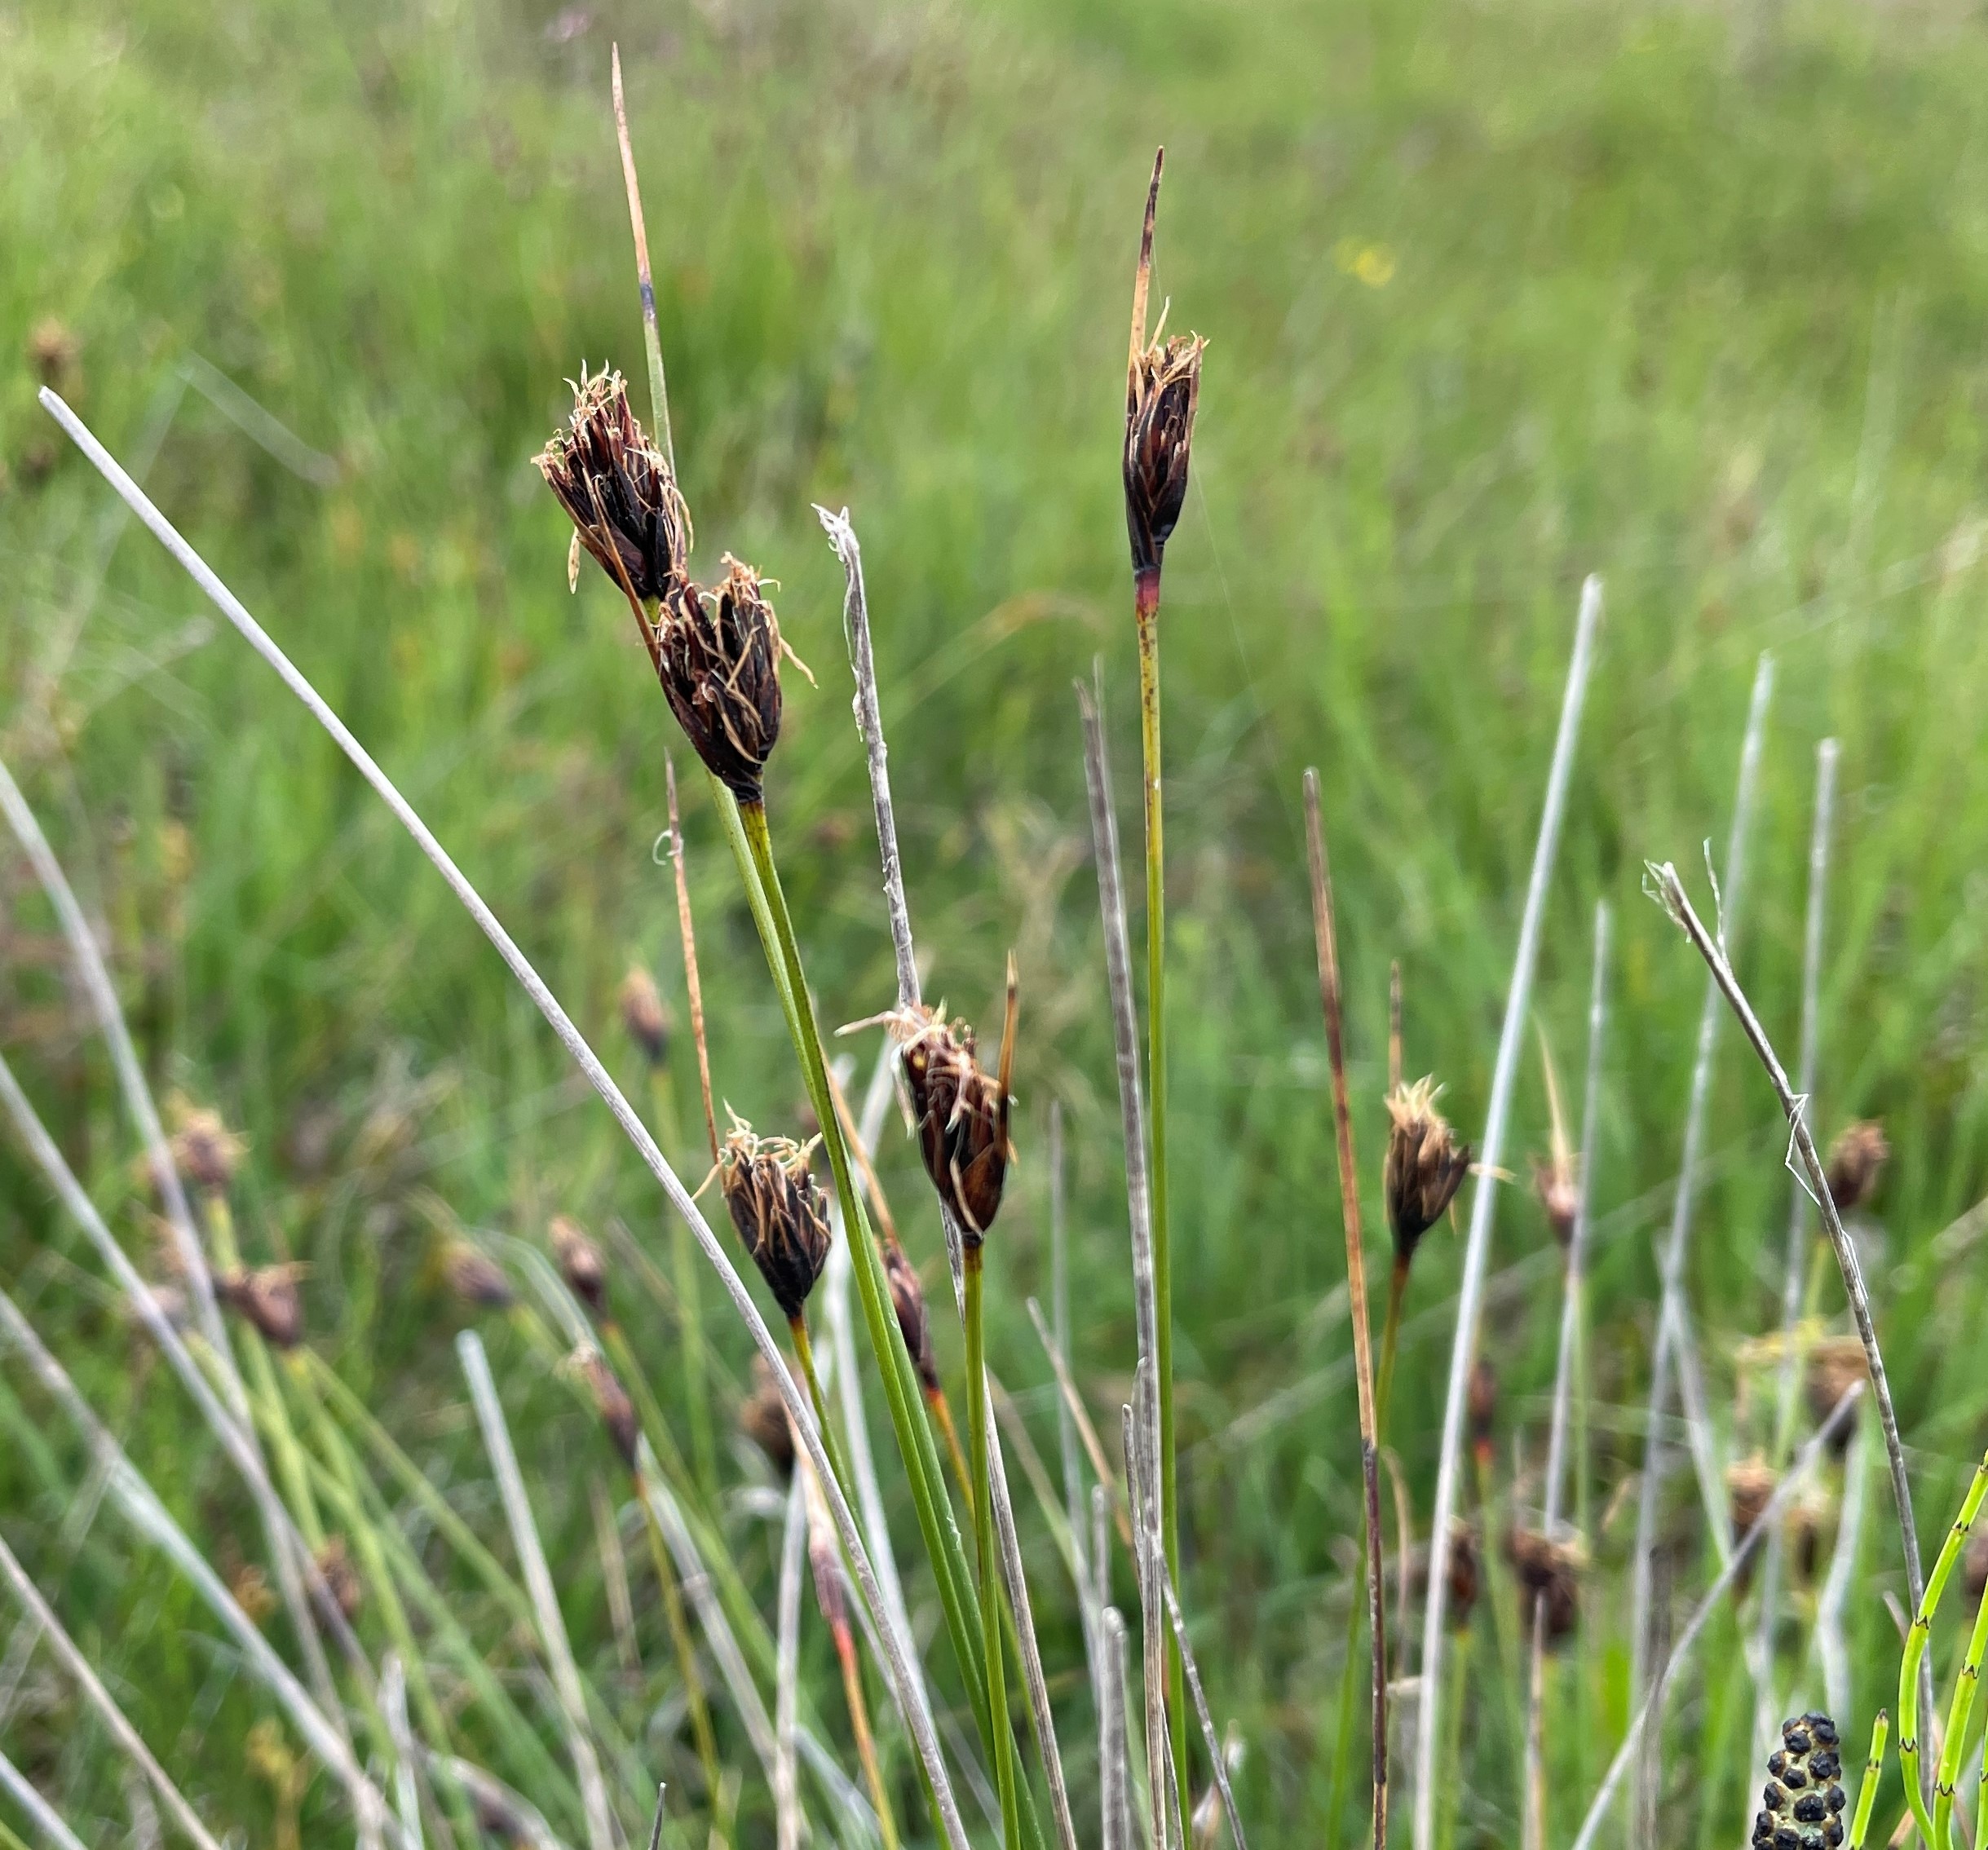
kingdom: Plantae
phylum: Tracheophyta
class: Liliopsida
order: Poales
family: Cyperaceae
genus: Schoenus
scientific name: Schoenus nigricans
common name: Sort skæne
